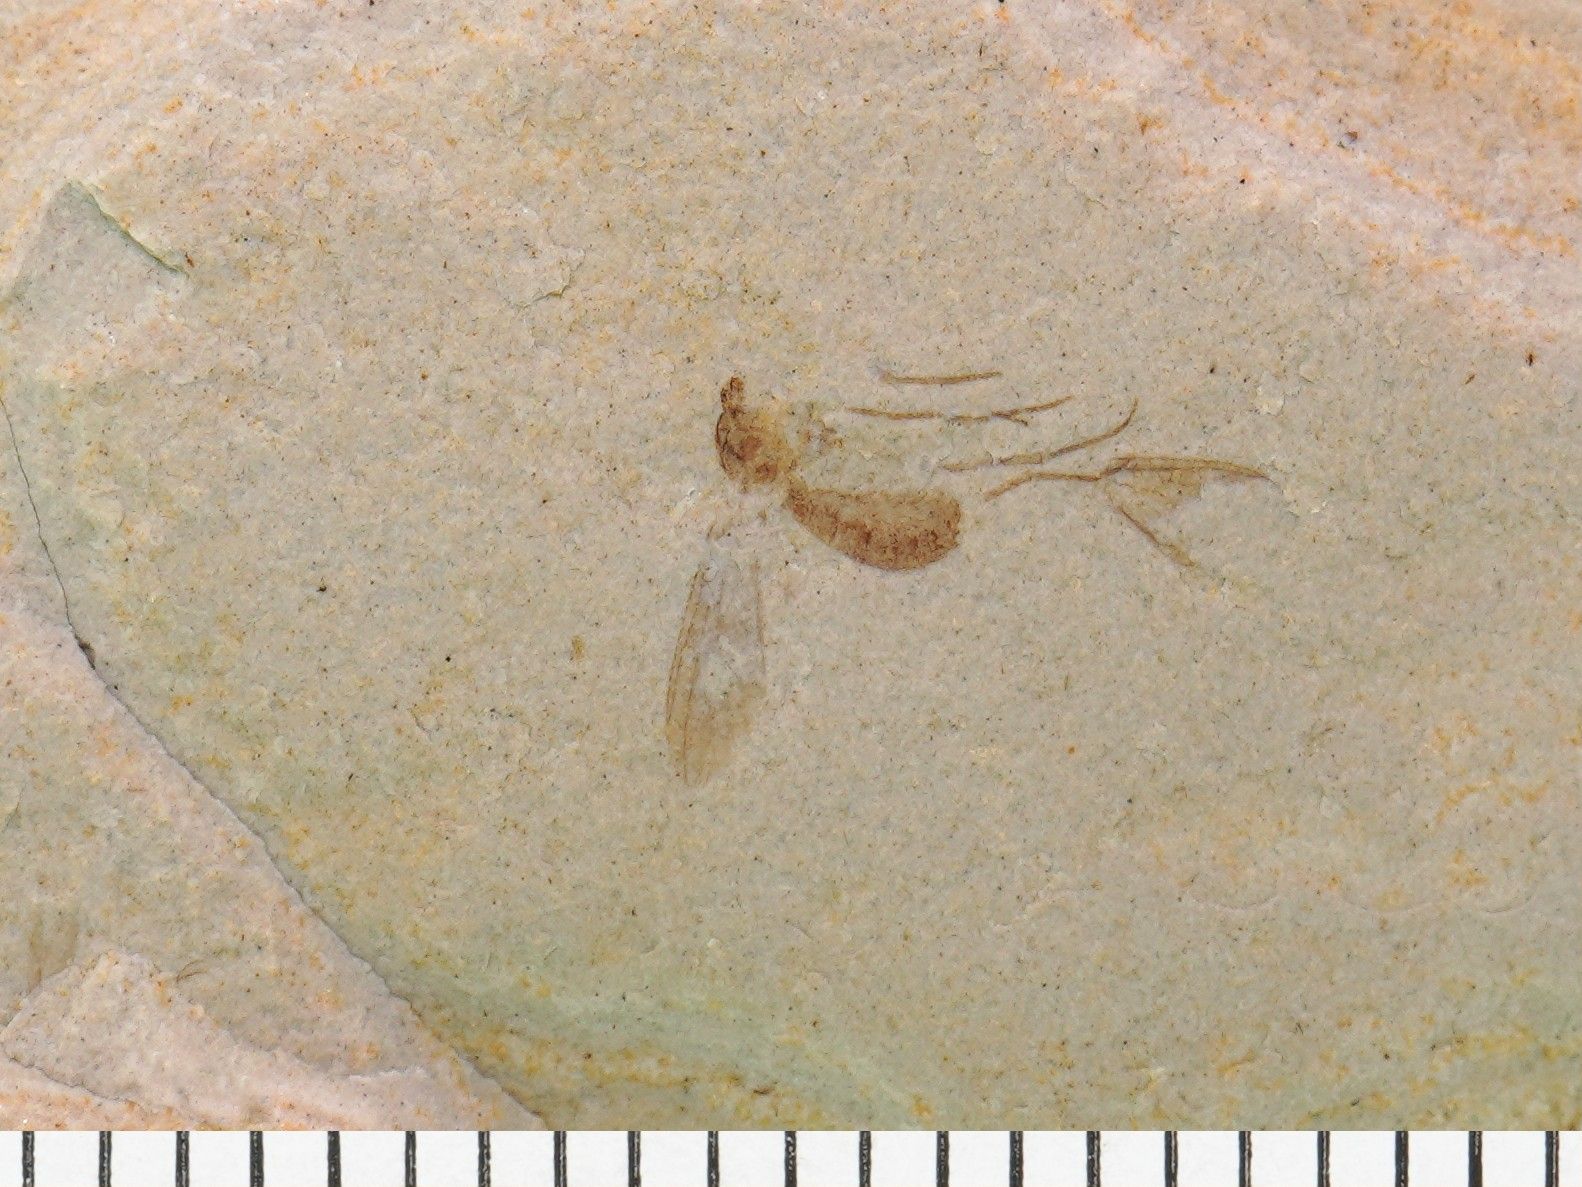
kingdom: Animalia
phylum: Arthropoda
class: Insecta
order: Diptera
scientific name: Diptera
